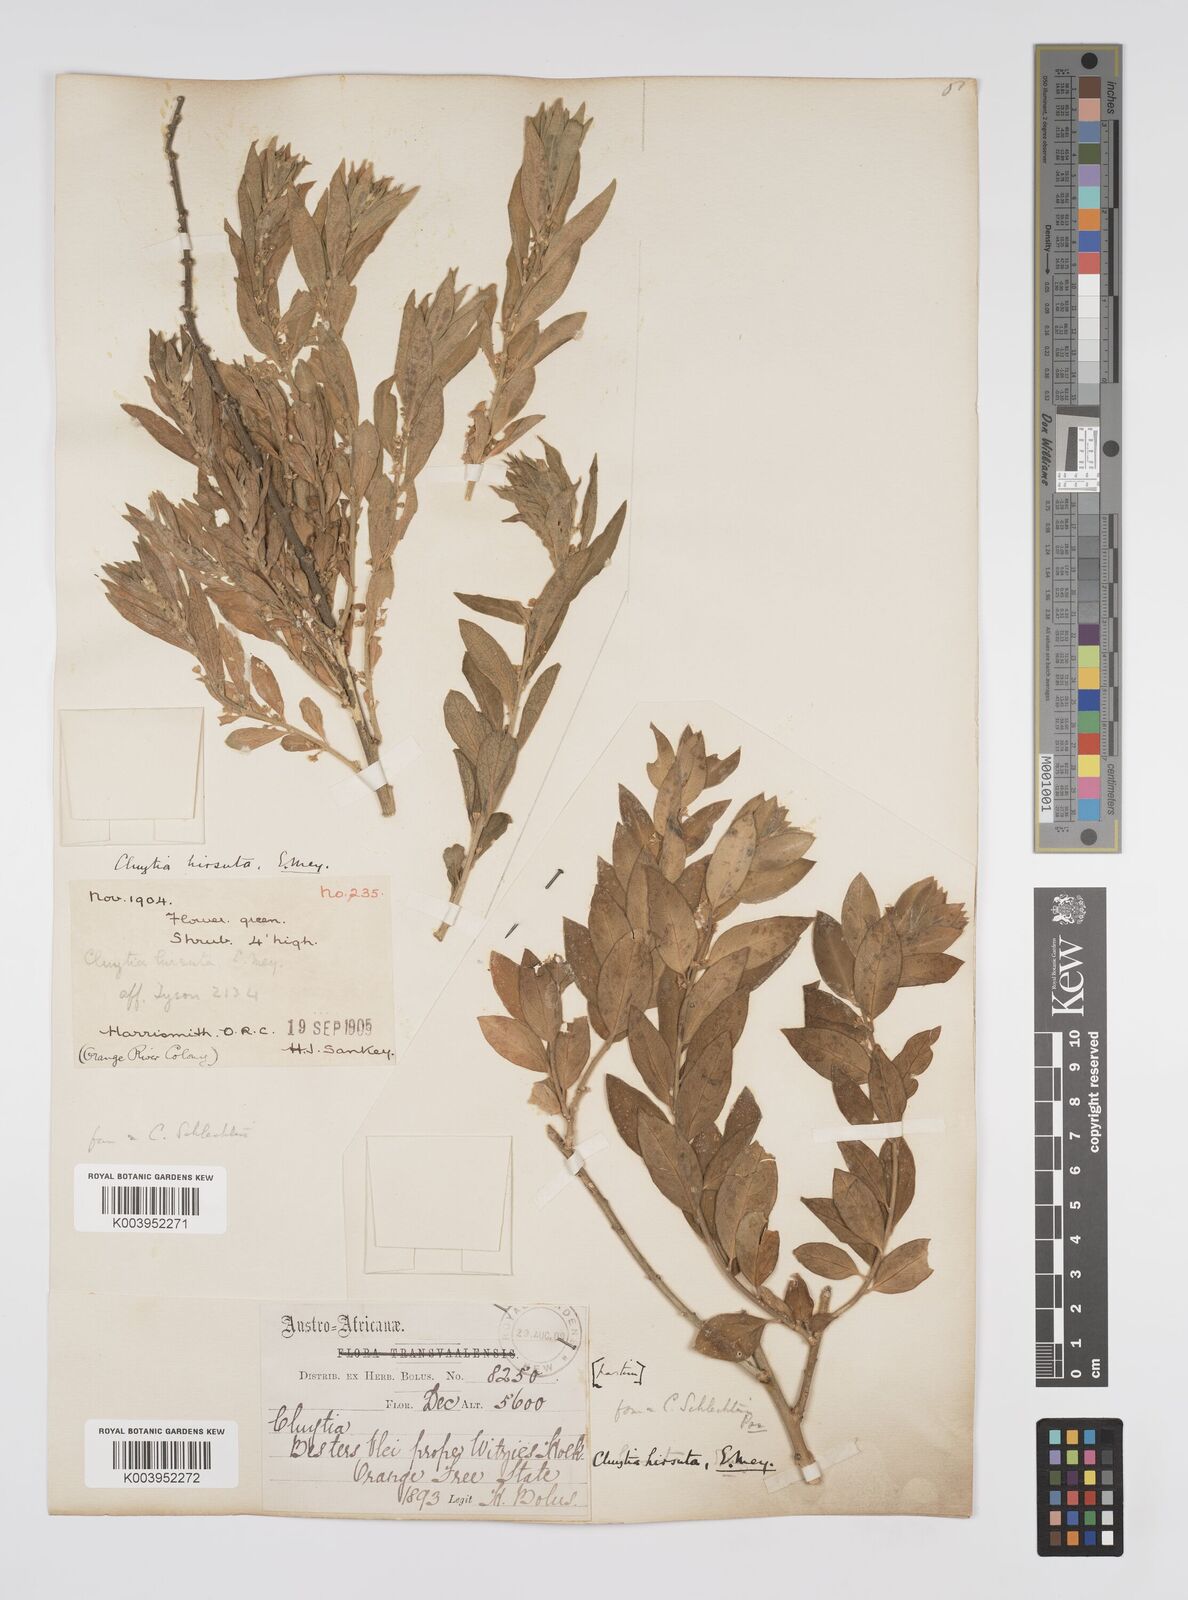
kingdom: Plantae
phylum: Tracheophyta
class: Magnoliopsida
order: Malpighiales
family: Peraceae
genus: Clutia
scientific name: Clutia affinis
